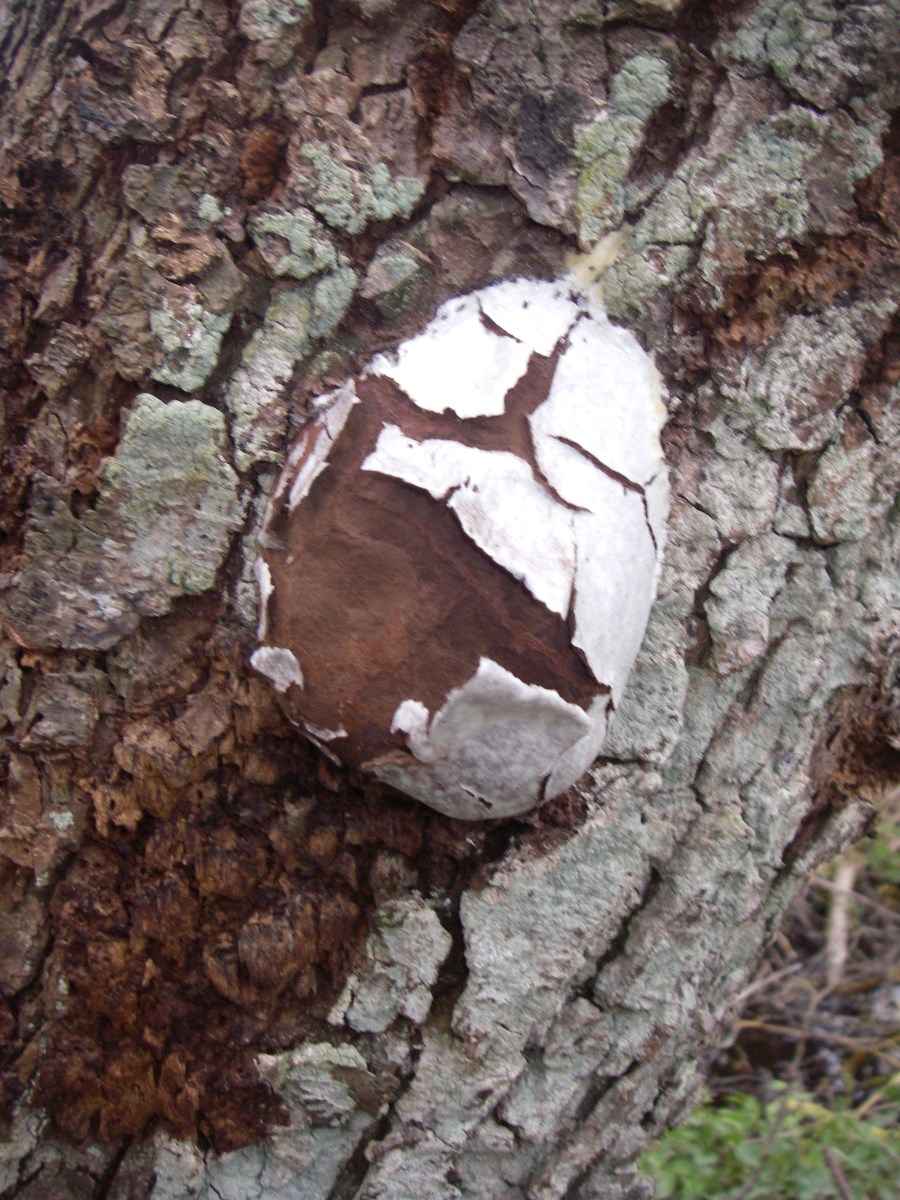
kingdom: Protozoa
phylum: Mycetozoa
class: Myxomycetes
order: Cribrariales
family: Tubiferaceae
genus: Reticularia
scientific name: Reticularia lycoperdon
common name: skinnende støvpude
